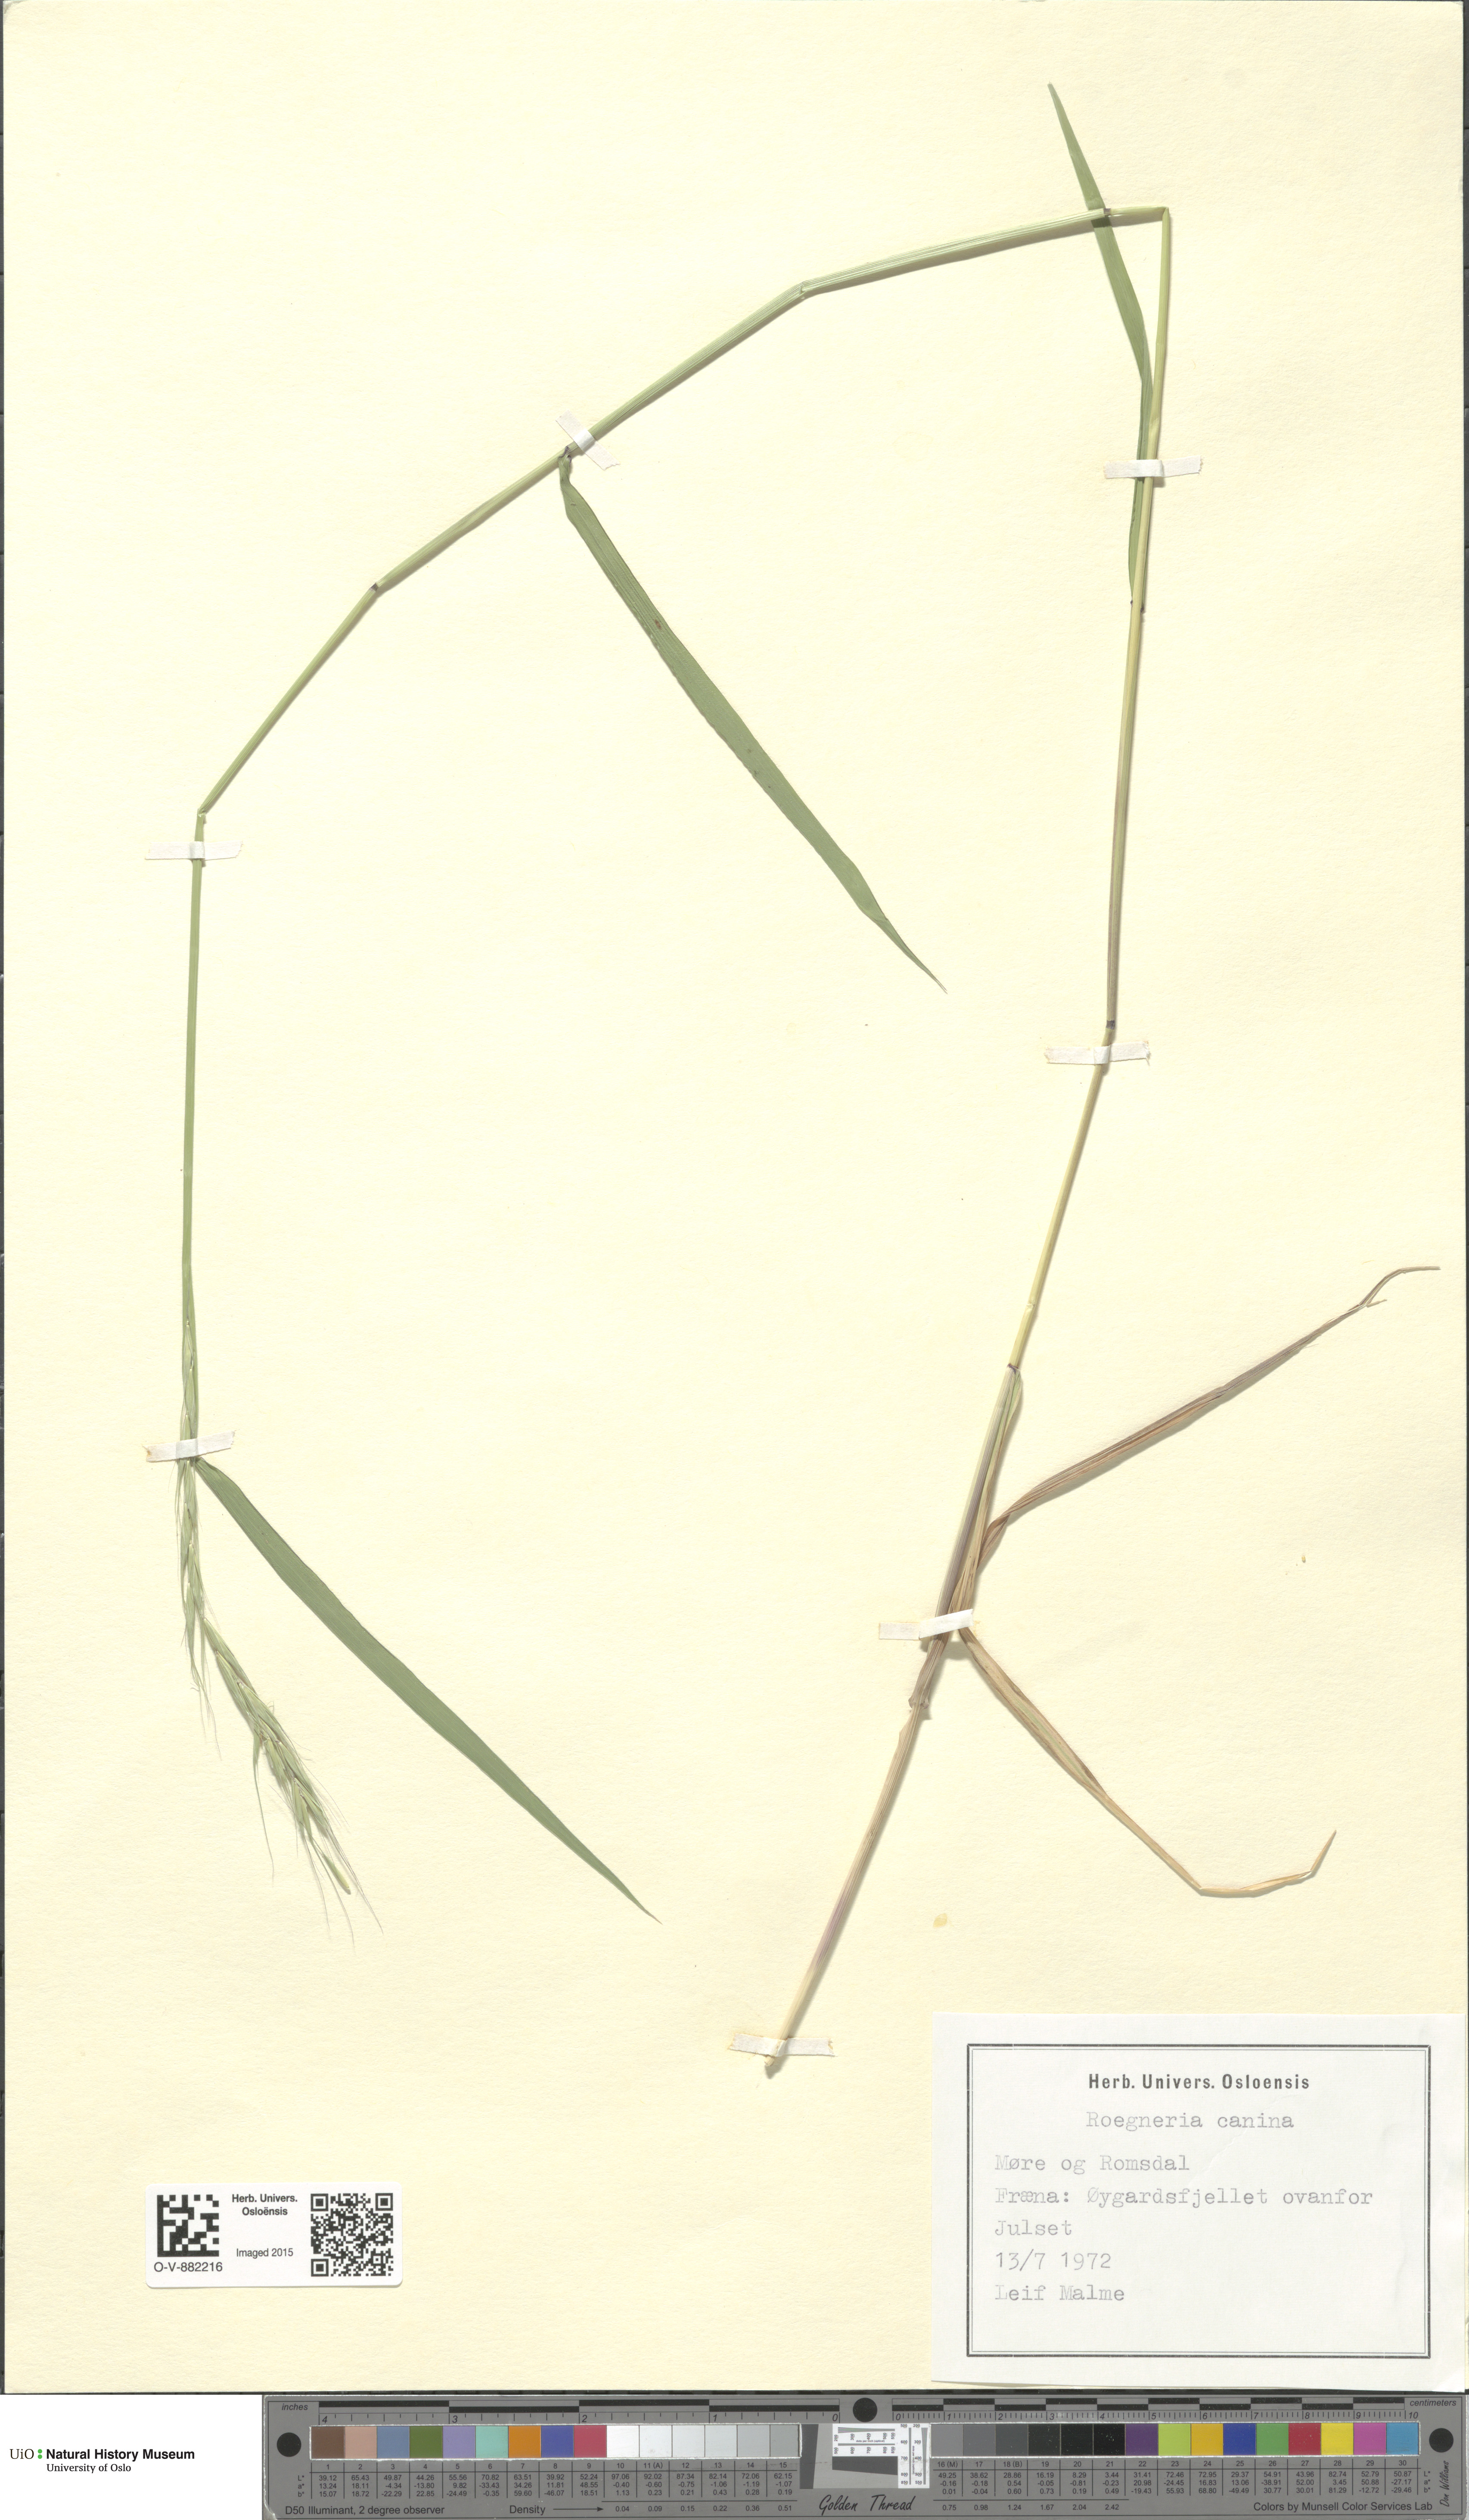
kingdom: Plantae
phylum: Tracheophyta
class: Liliopsida
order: Poales
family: Poaceae
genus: Elymus
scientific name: Elymus caninus
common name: Bearded couch
